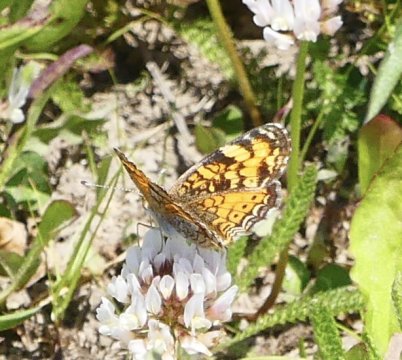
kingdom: Animalia
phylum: Arthropoda
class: Insecta
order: Lepidoptera
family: Nymphalidae
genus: Phyciodes
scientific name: Phyciodes tharos
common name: Pearl Crescent
